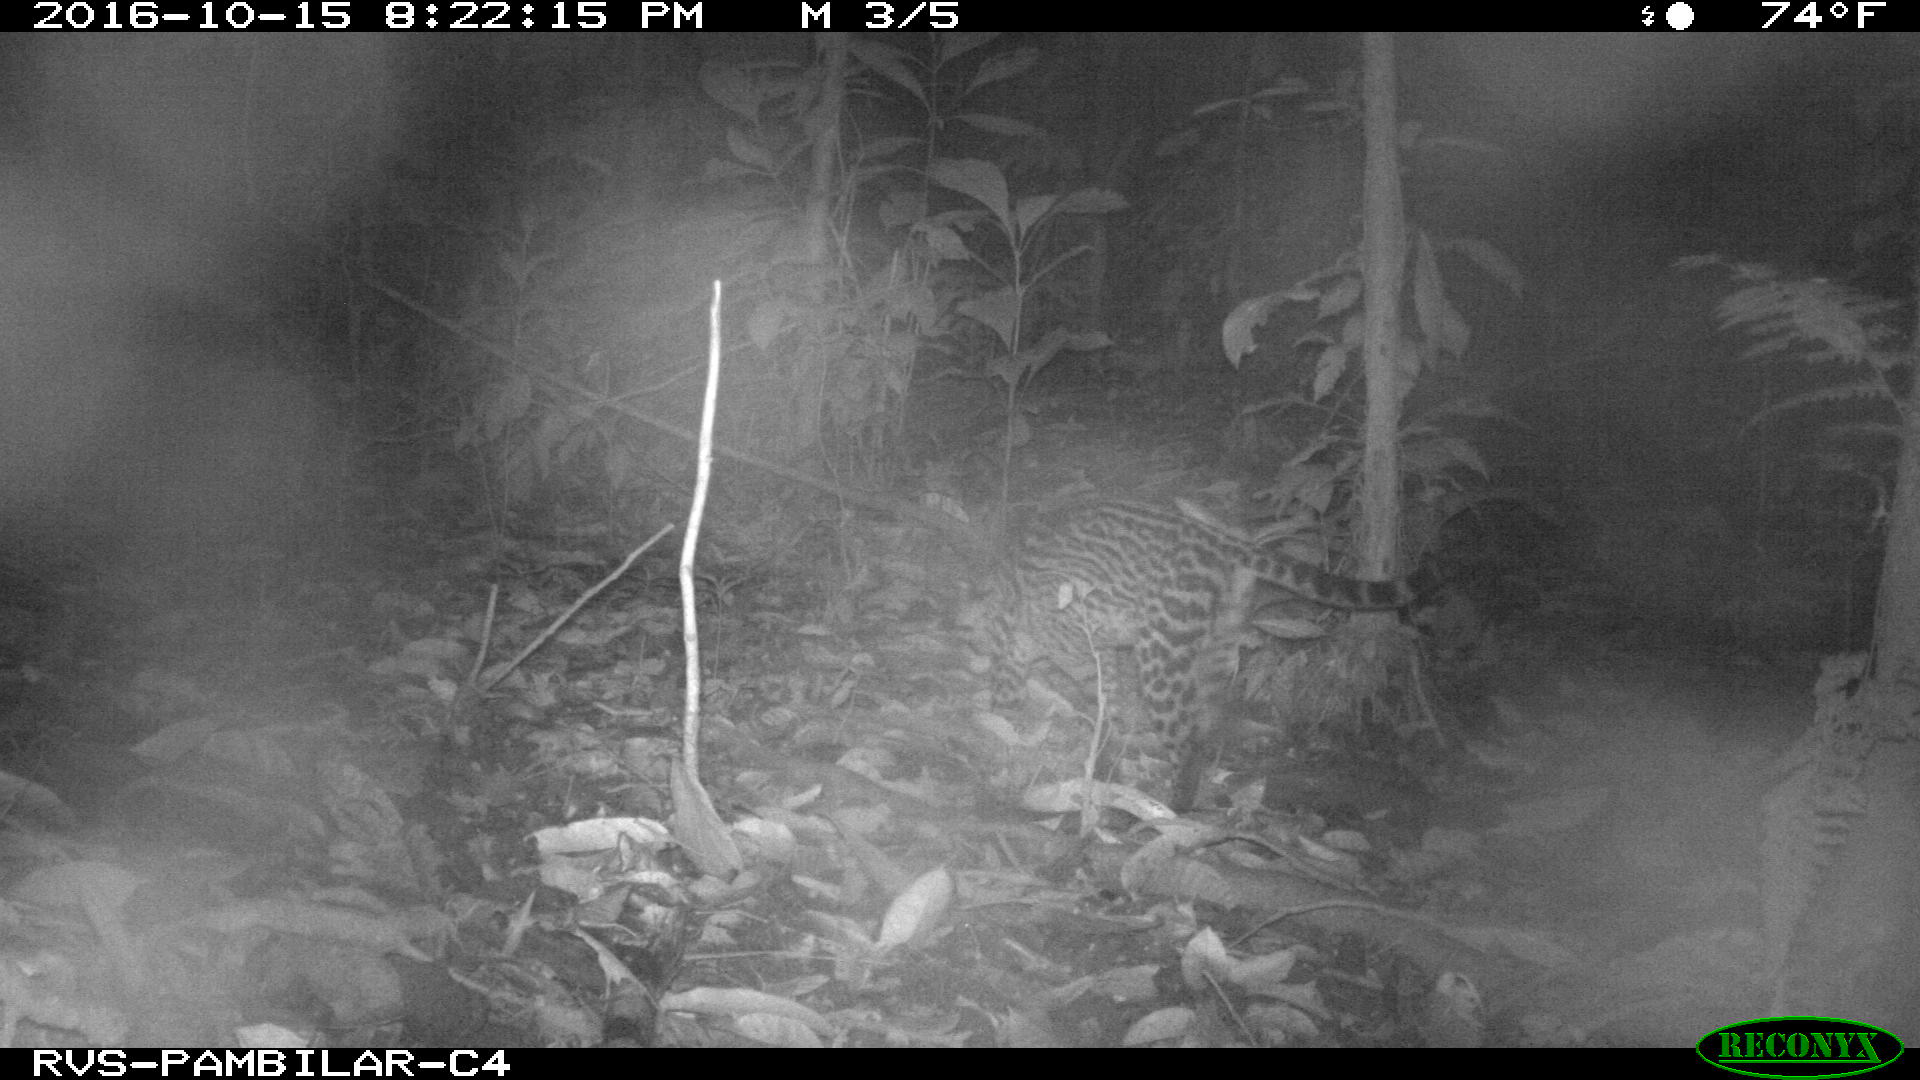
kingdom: Animalia
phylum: Chordata
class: Mammalia
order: Carnivora
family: Felidae
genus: Leopardus
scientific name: Leopardus pardalis
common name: Ocelot
